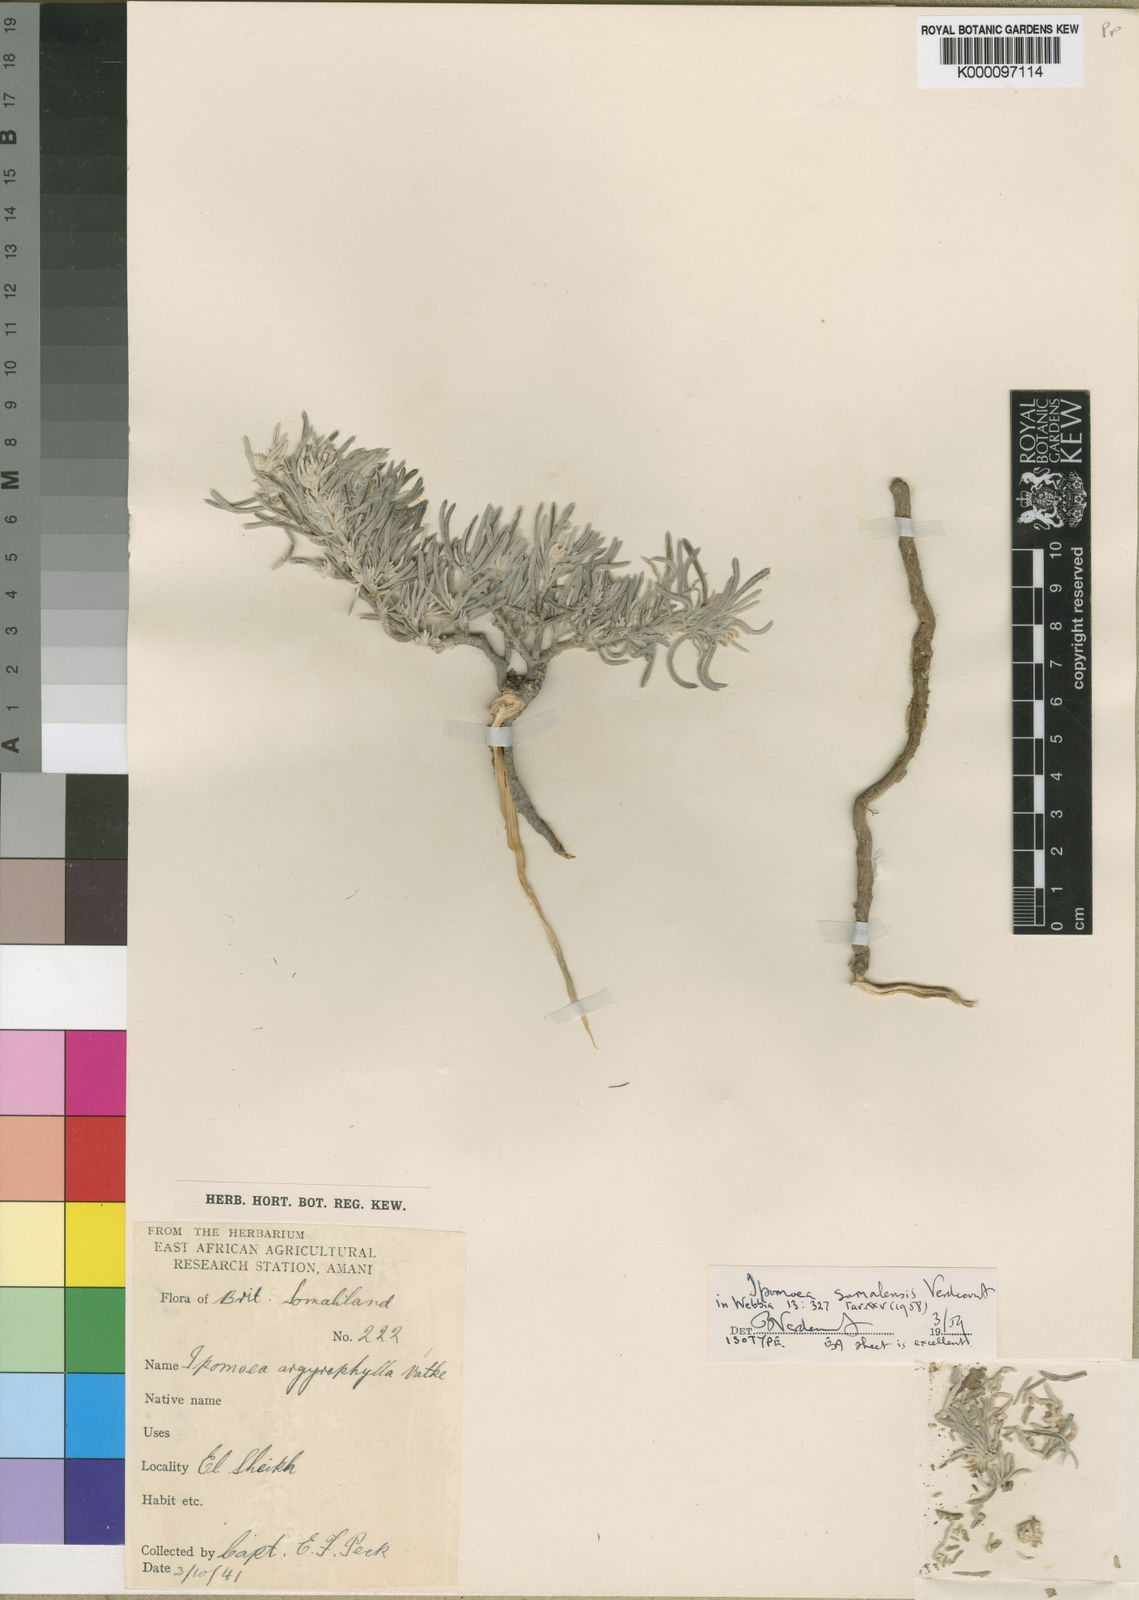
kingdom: Plantae
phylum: Tracheophyta
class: Magnoliopsida
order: Solanales
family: Convolvulaceae
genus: Ipomoea
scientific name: Ipomoea argyrophylla
